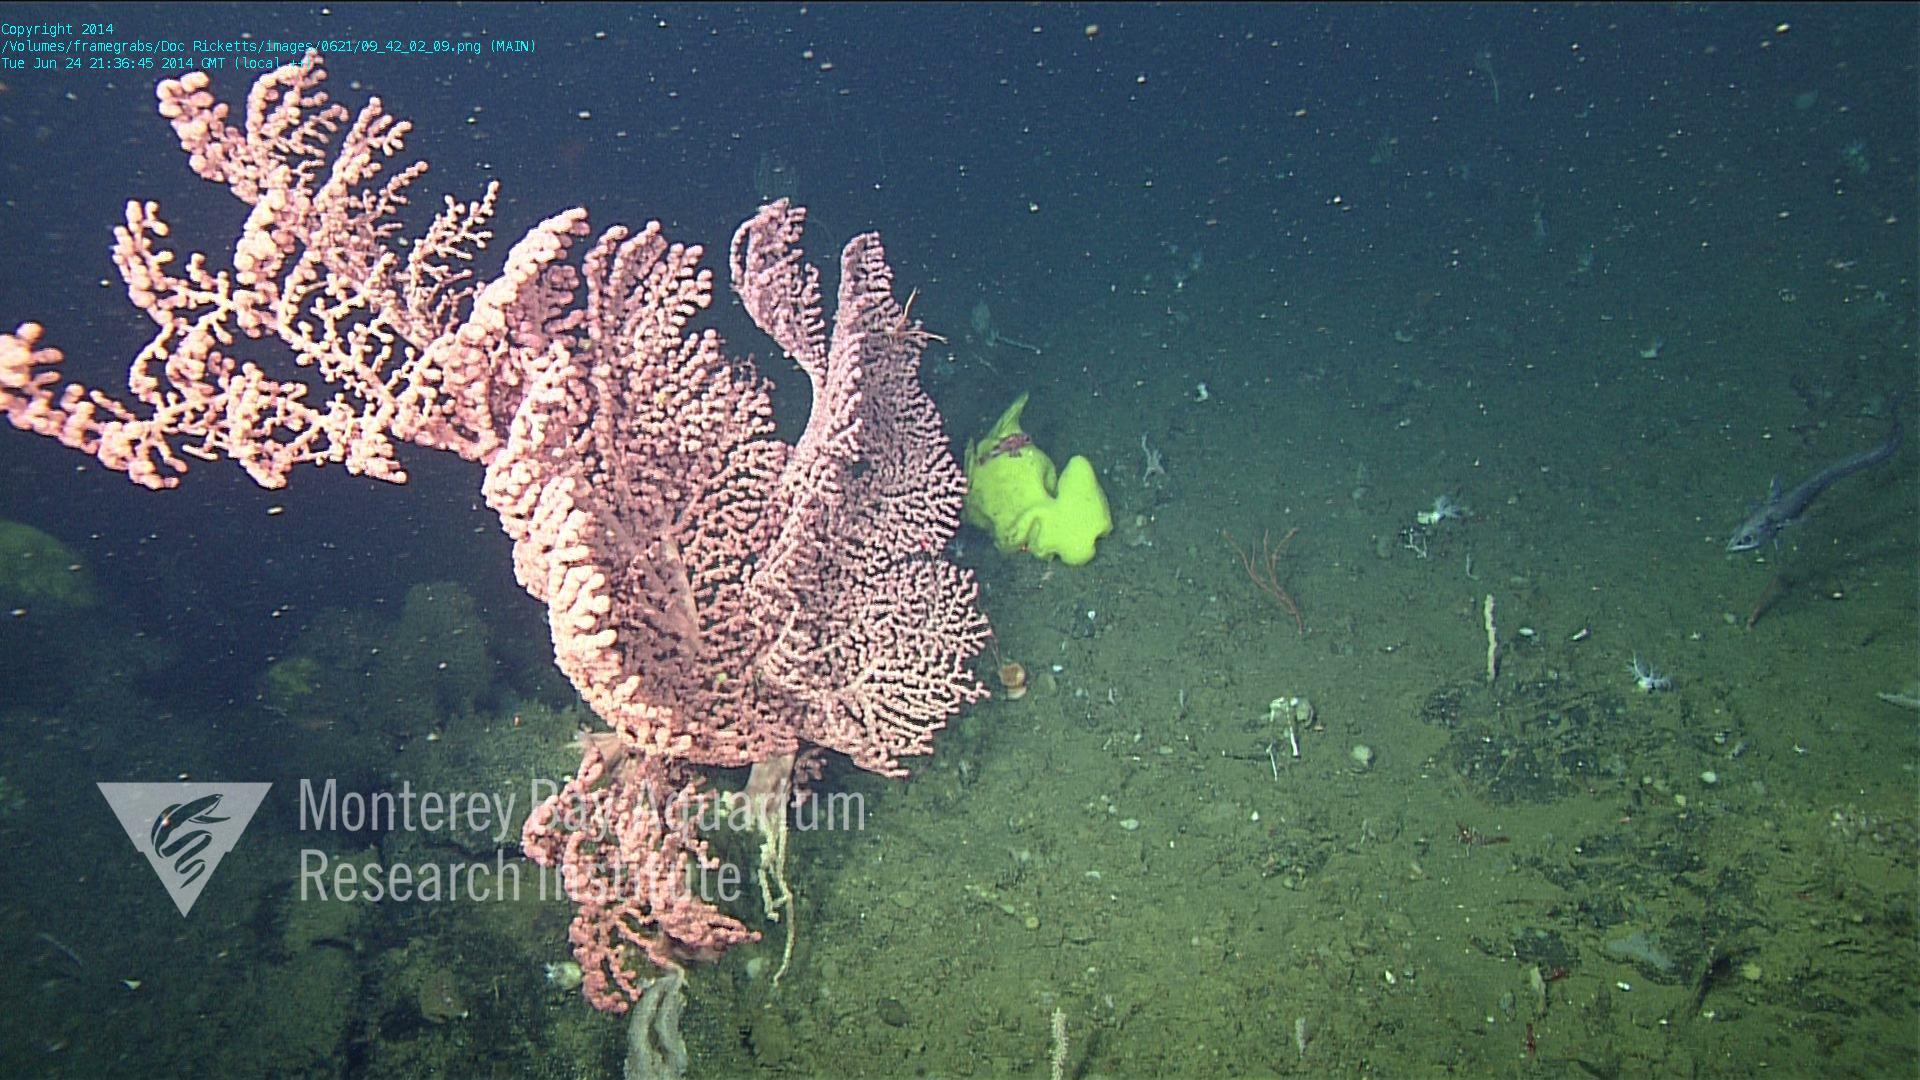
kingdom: Animalia
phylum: Cnidaria
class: Anthozoa
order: Scleralcyonacea
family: Coralliidae
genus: Paragorgia
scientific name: Paragorgia arborea
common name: Bubble gum coral
